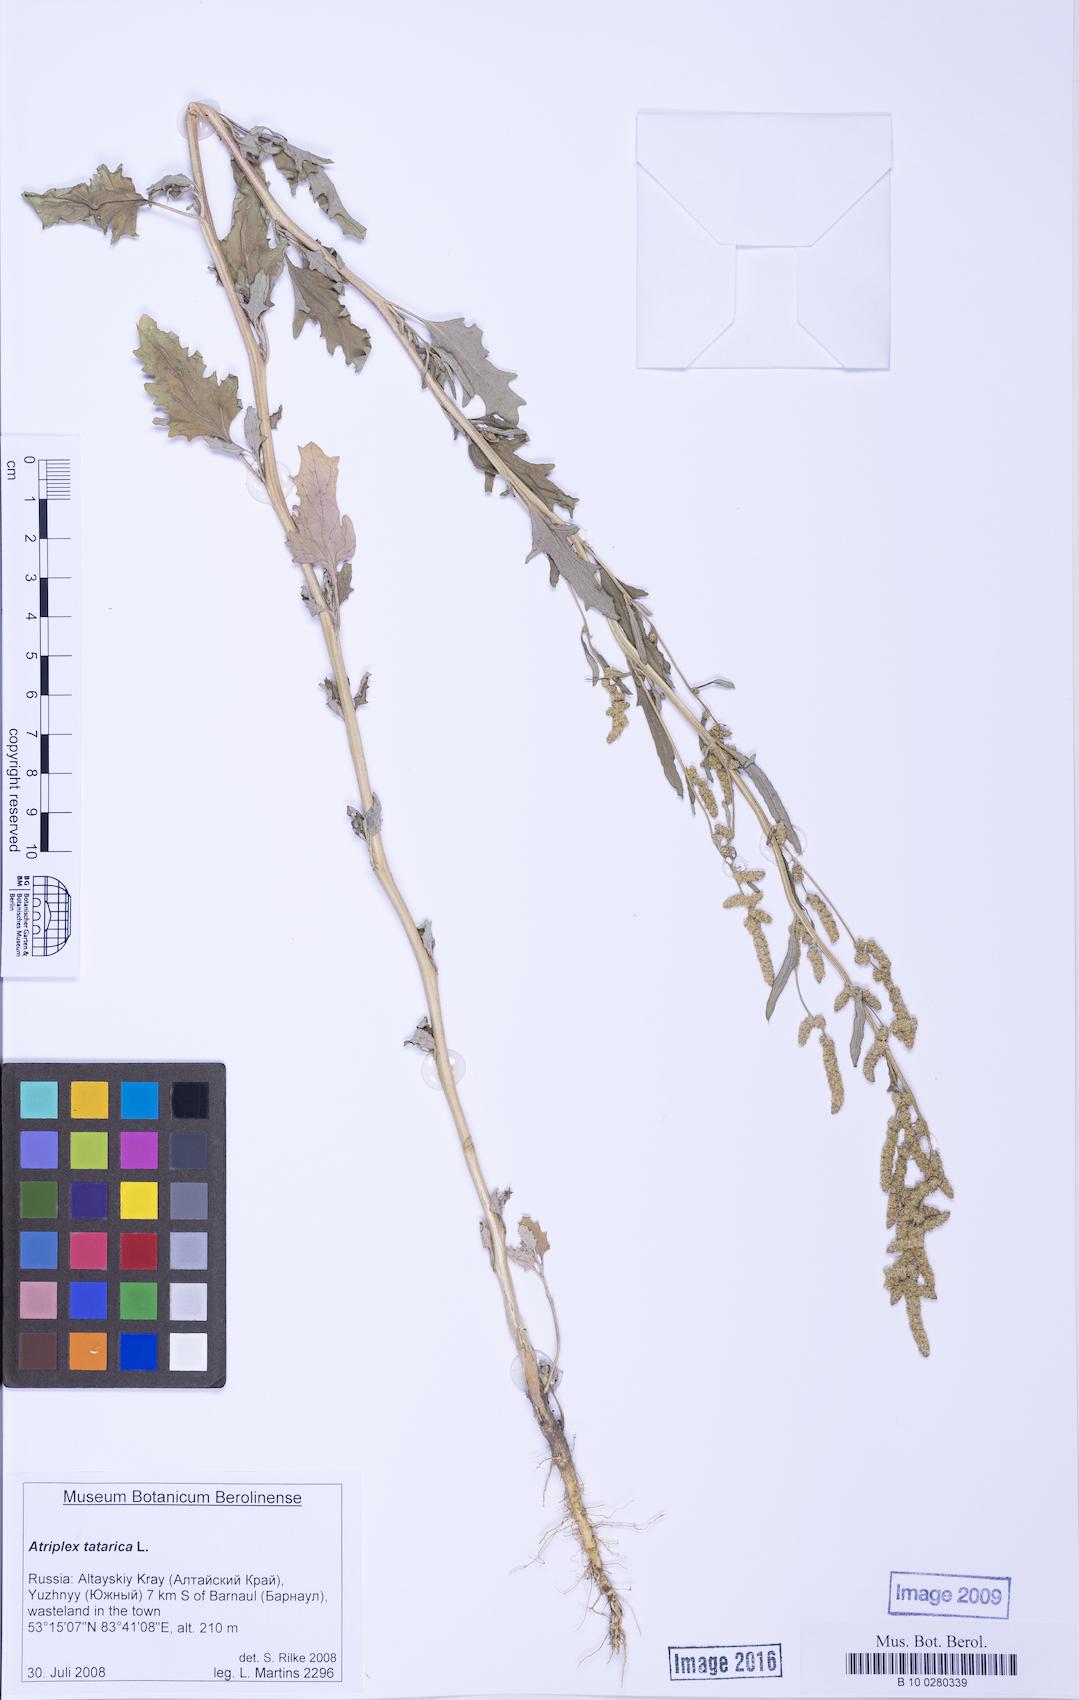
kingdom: Plantae
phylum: Tracheophyta
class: Magnoliopsida
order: Caryophyllales
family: Amaranthaceae
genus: Atriplex
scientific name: Atriplex tatarica
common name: Tatarian orache
